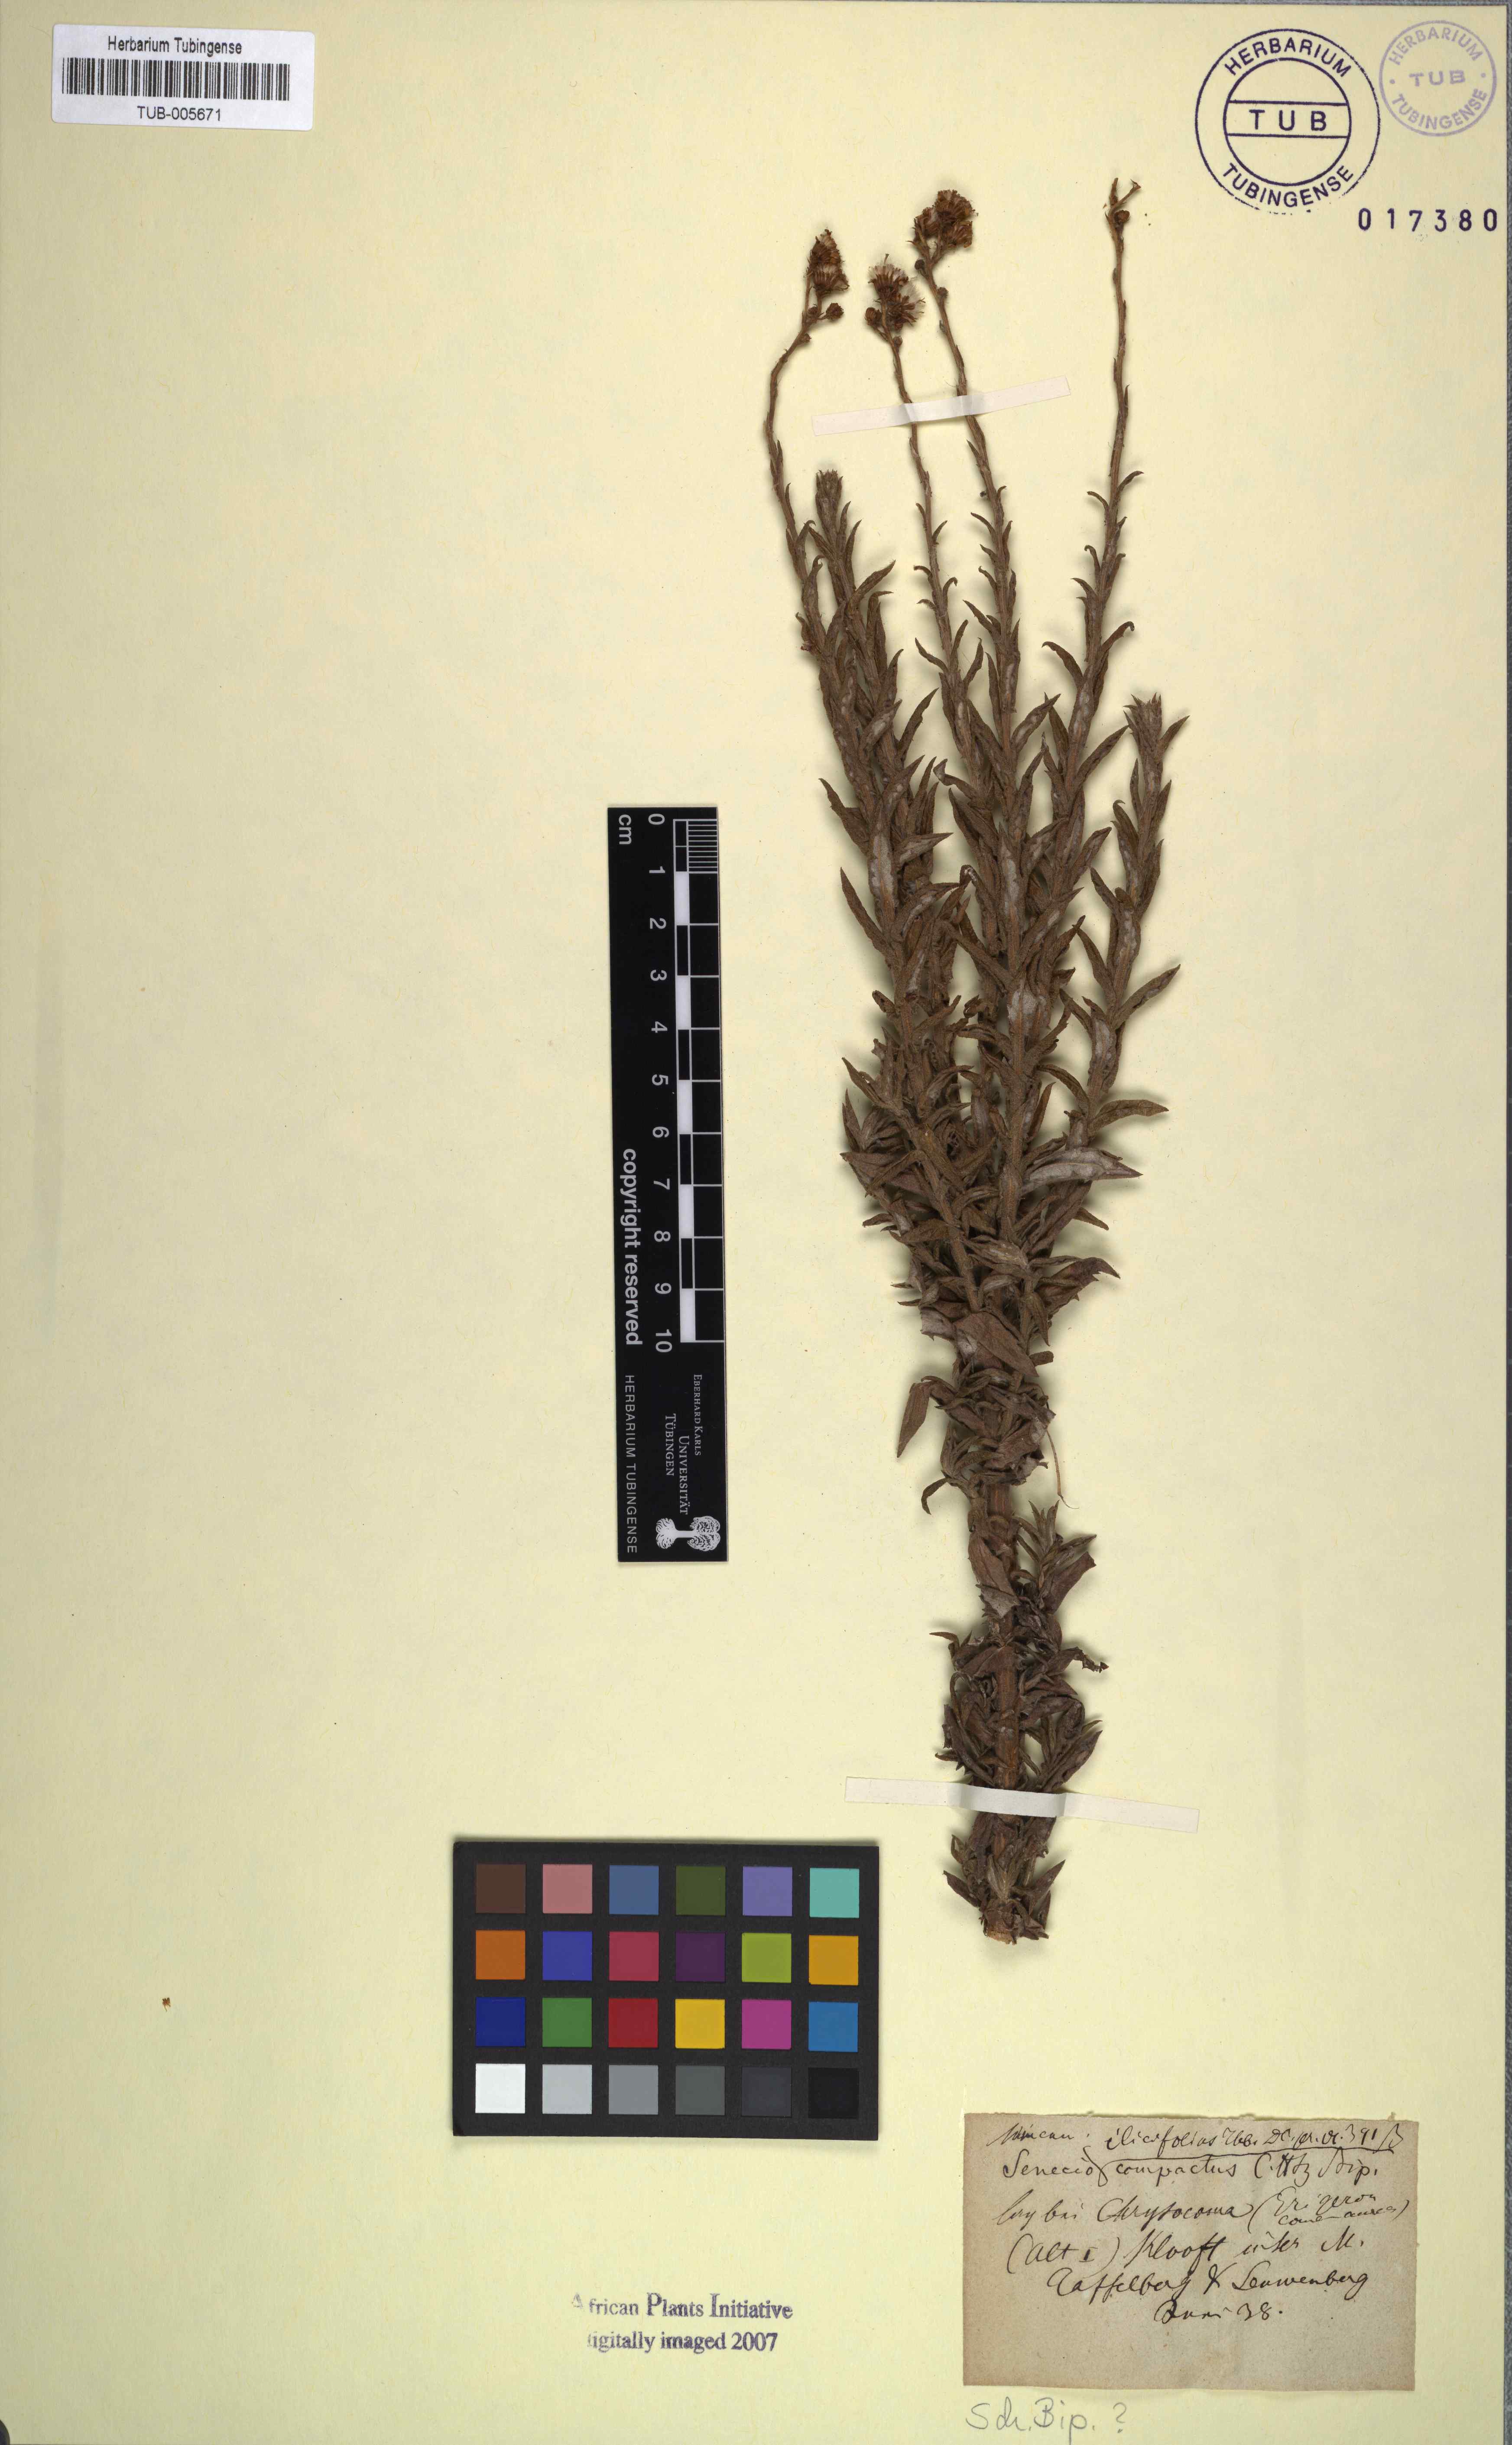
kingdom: Plantae
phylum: Tracheophyta
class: Magnoliopsida
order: Asterales
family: Asteraceae
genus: Senecio
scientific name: Senecio ilicifolius
